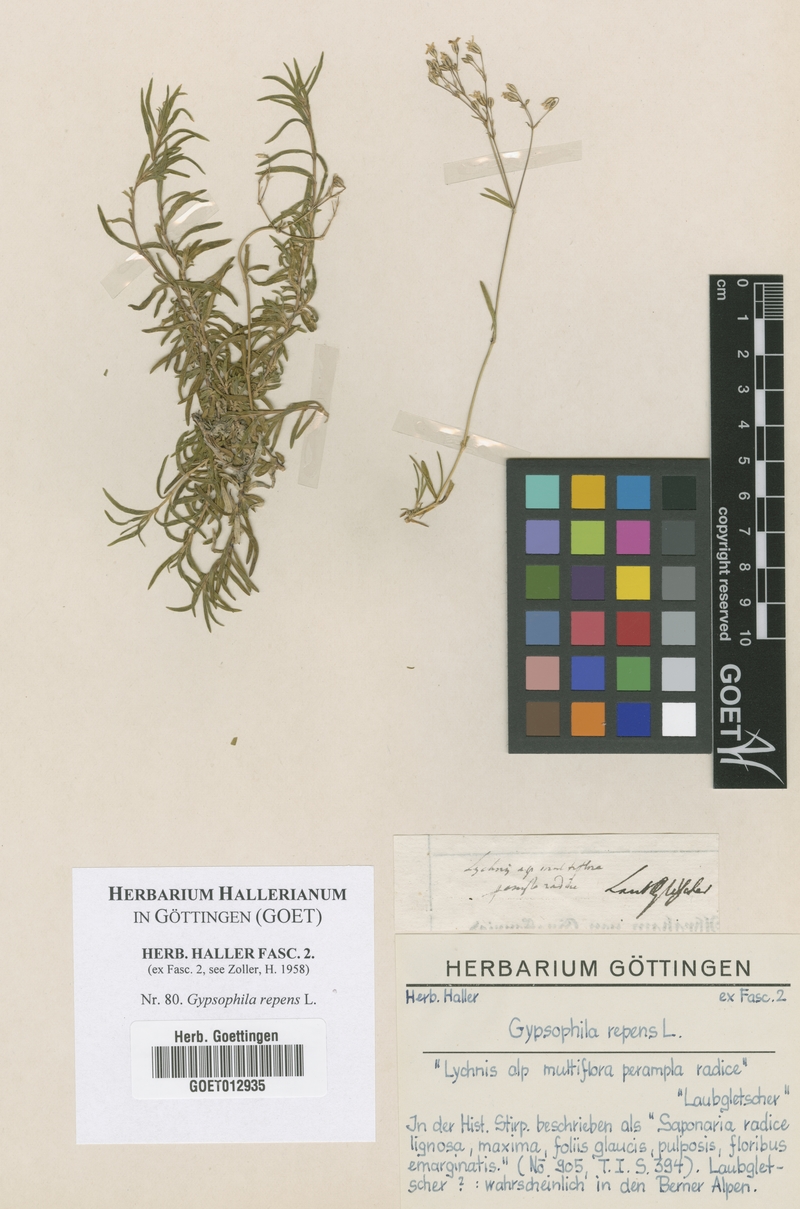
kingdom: Plantae
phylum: Tracheophyta
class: Magnoliopsida
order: Caryophyllales
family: Caryophyllaceae
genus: Gypsophila
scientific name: Gypsophila repens
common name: Creeping baby's-breath
